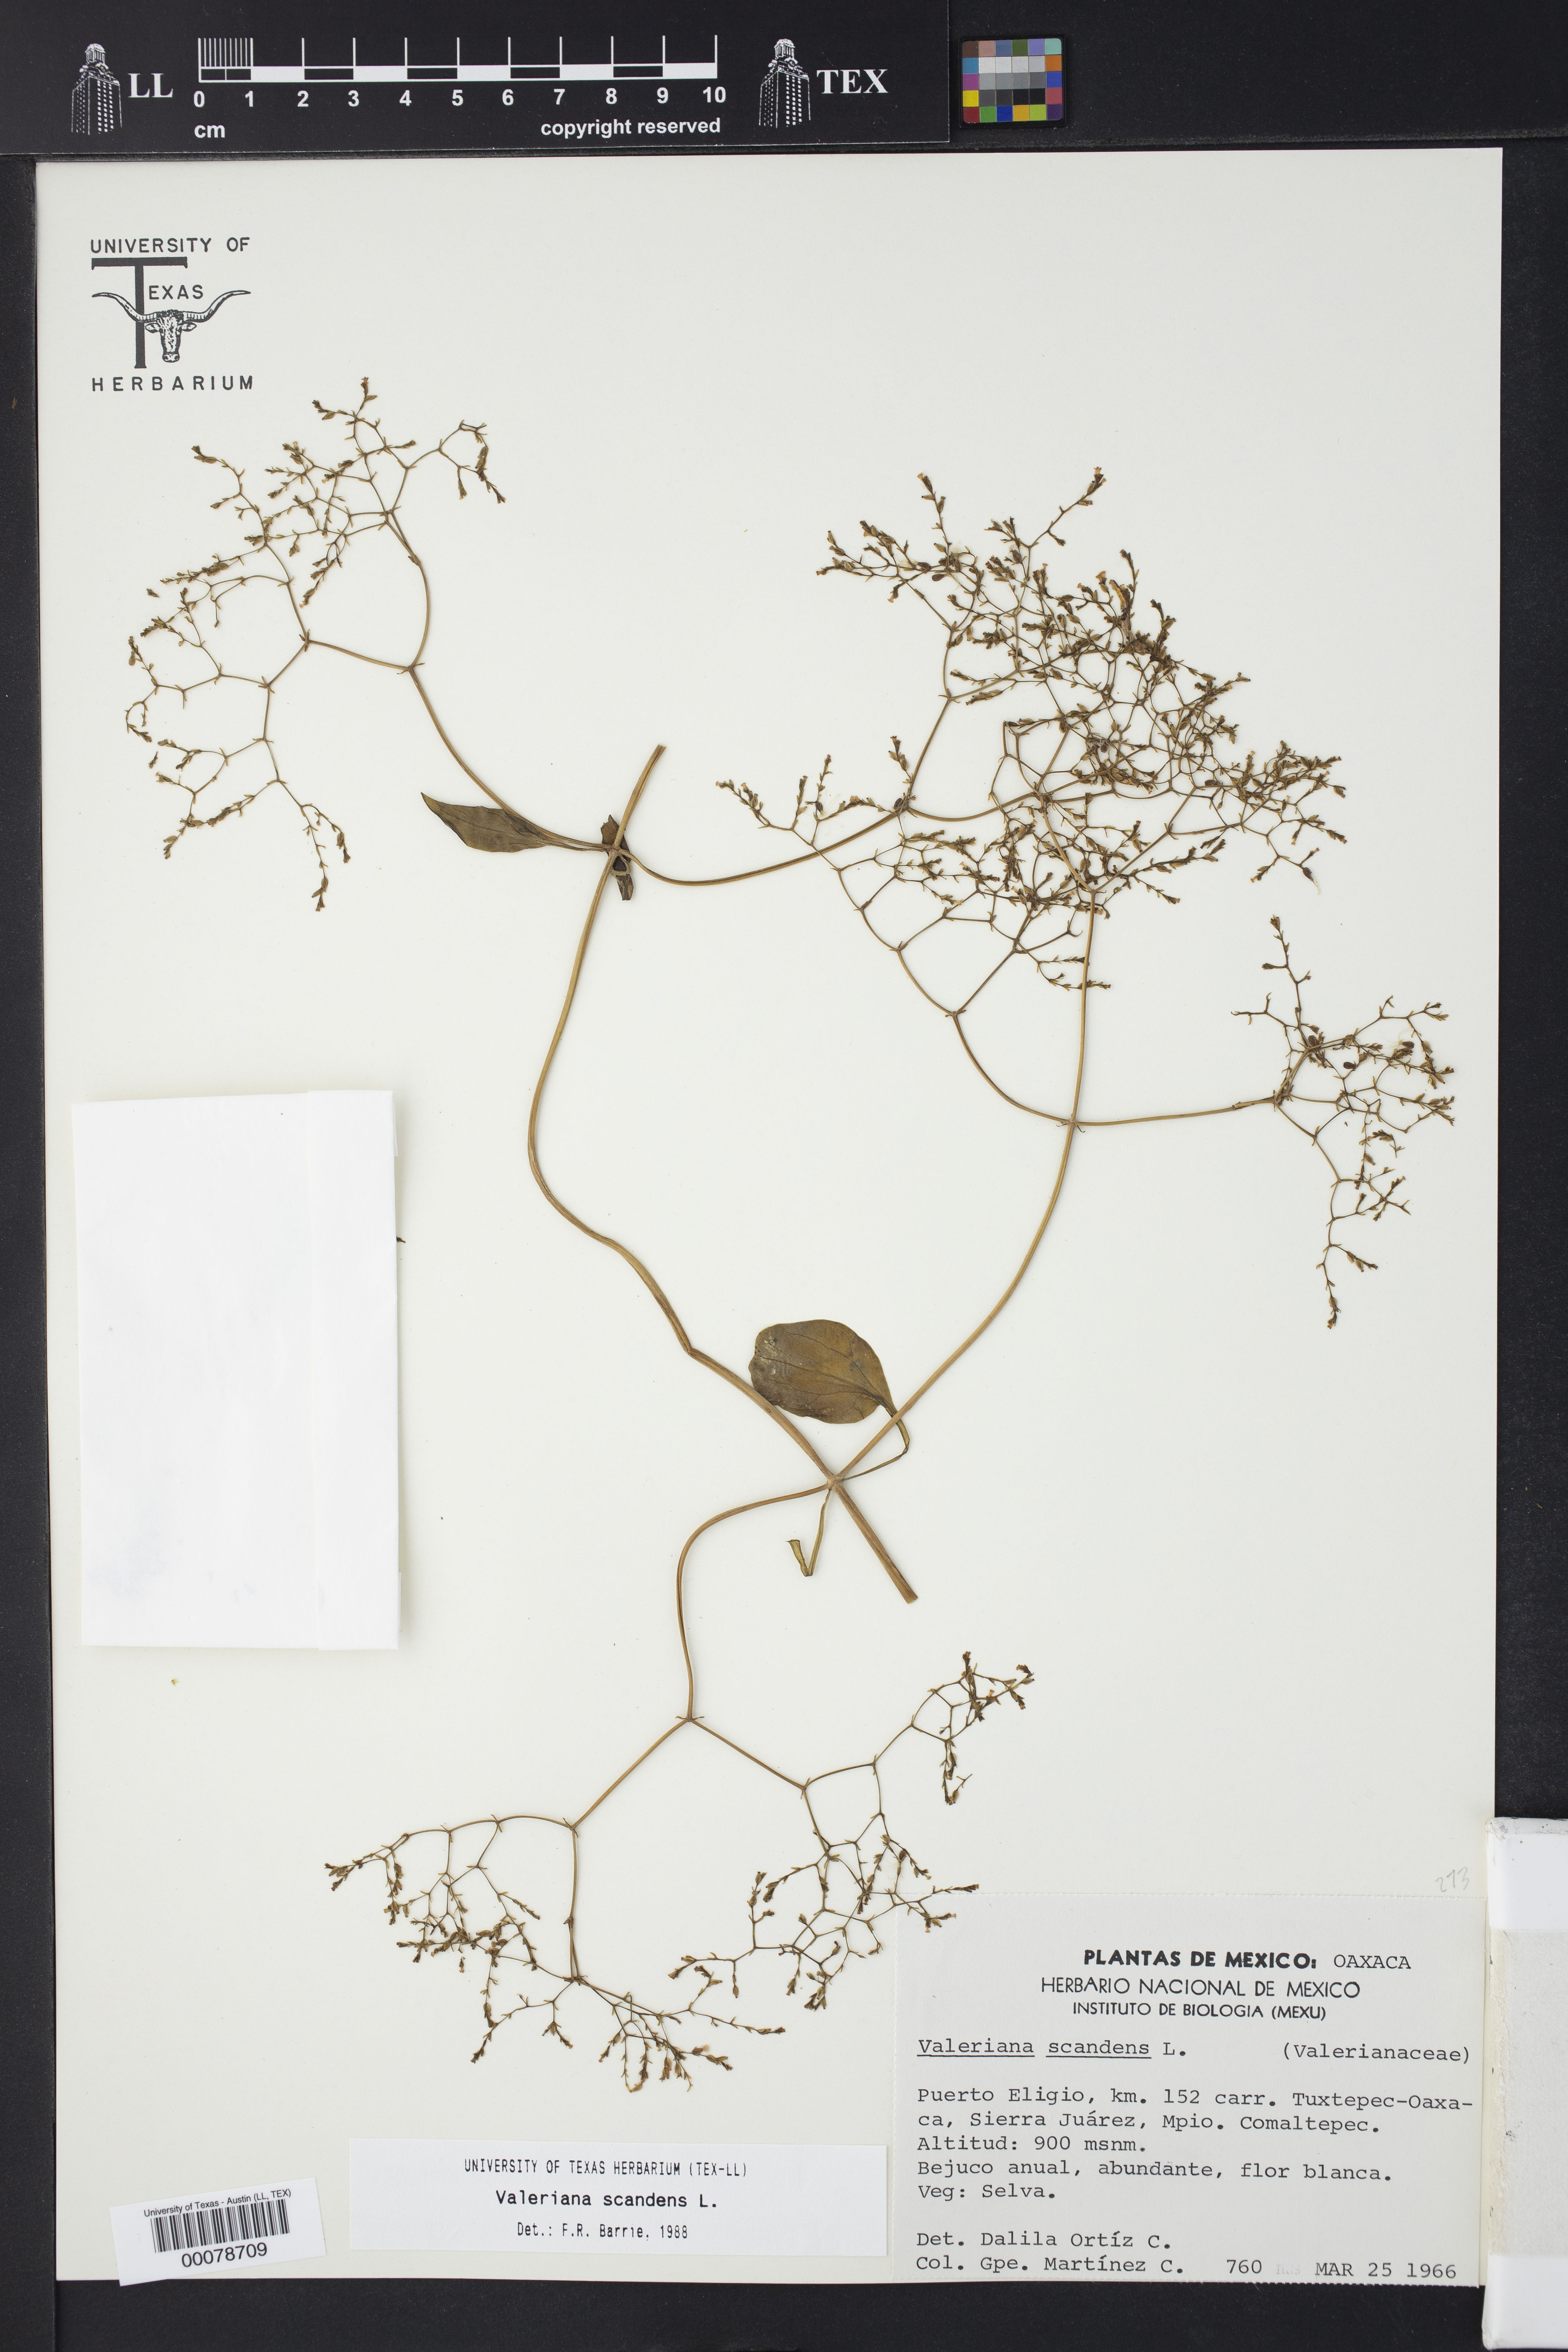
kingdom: Plantae
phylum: Tracheophyta
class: Magnoliopsida
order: Dipsacales
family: Caprifoliaceae
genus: Valeriana
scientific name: Valeriana scandens
